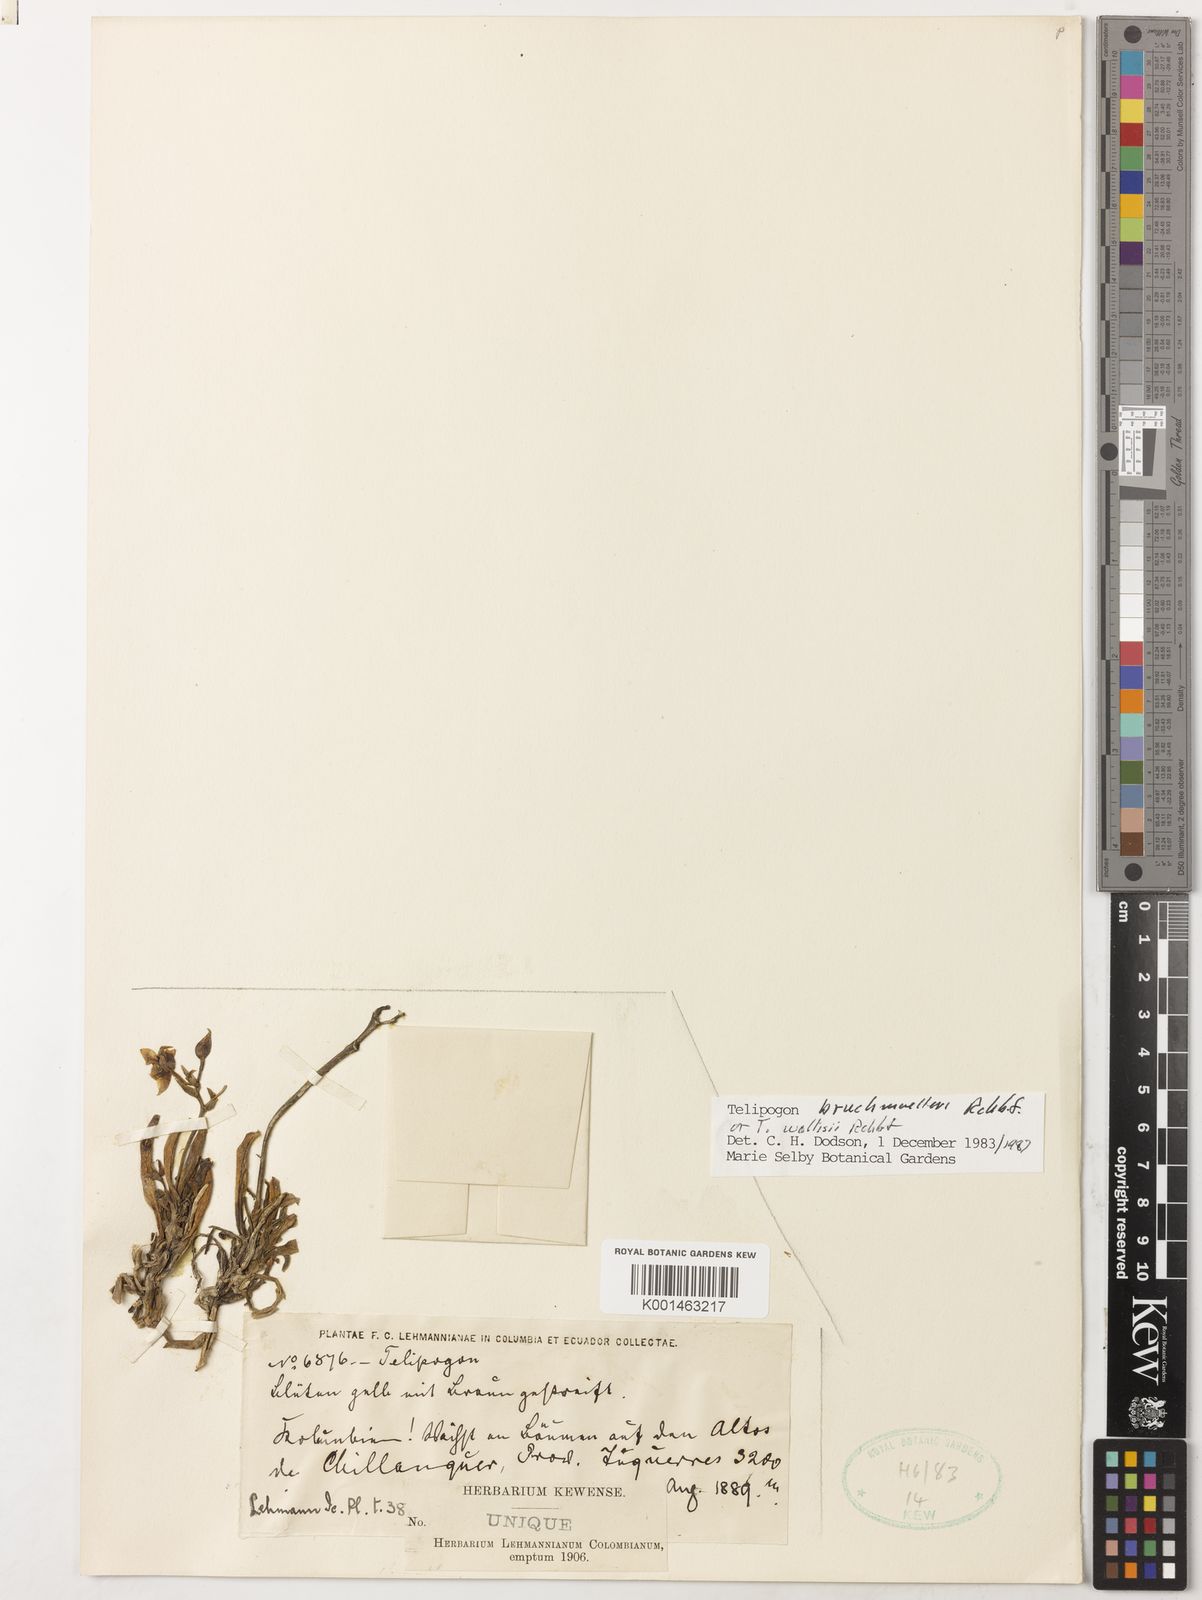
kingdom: Plantae
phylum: Tracheophyta
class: Liliopsida
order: Asparagales
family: Orchidaceae
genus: Telipogon
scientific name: Telipogon wallisii
